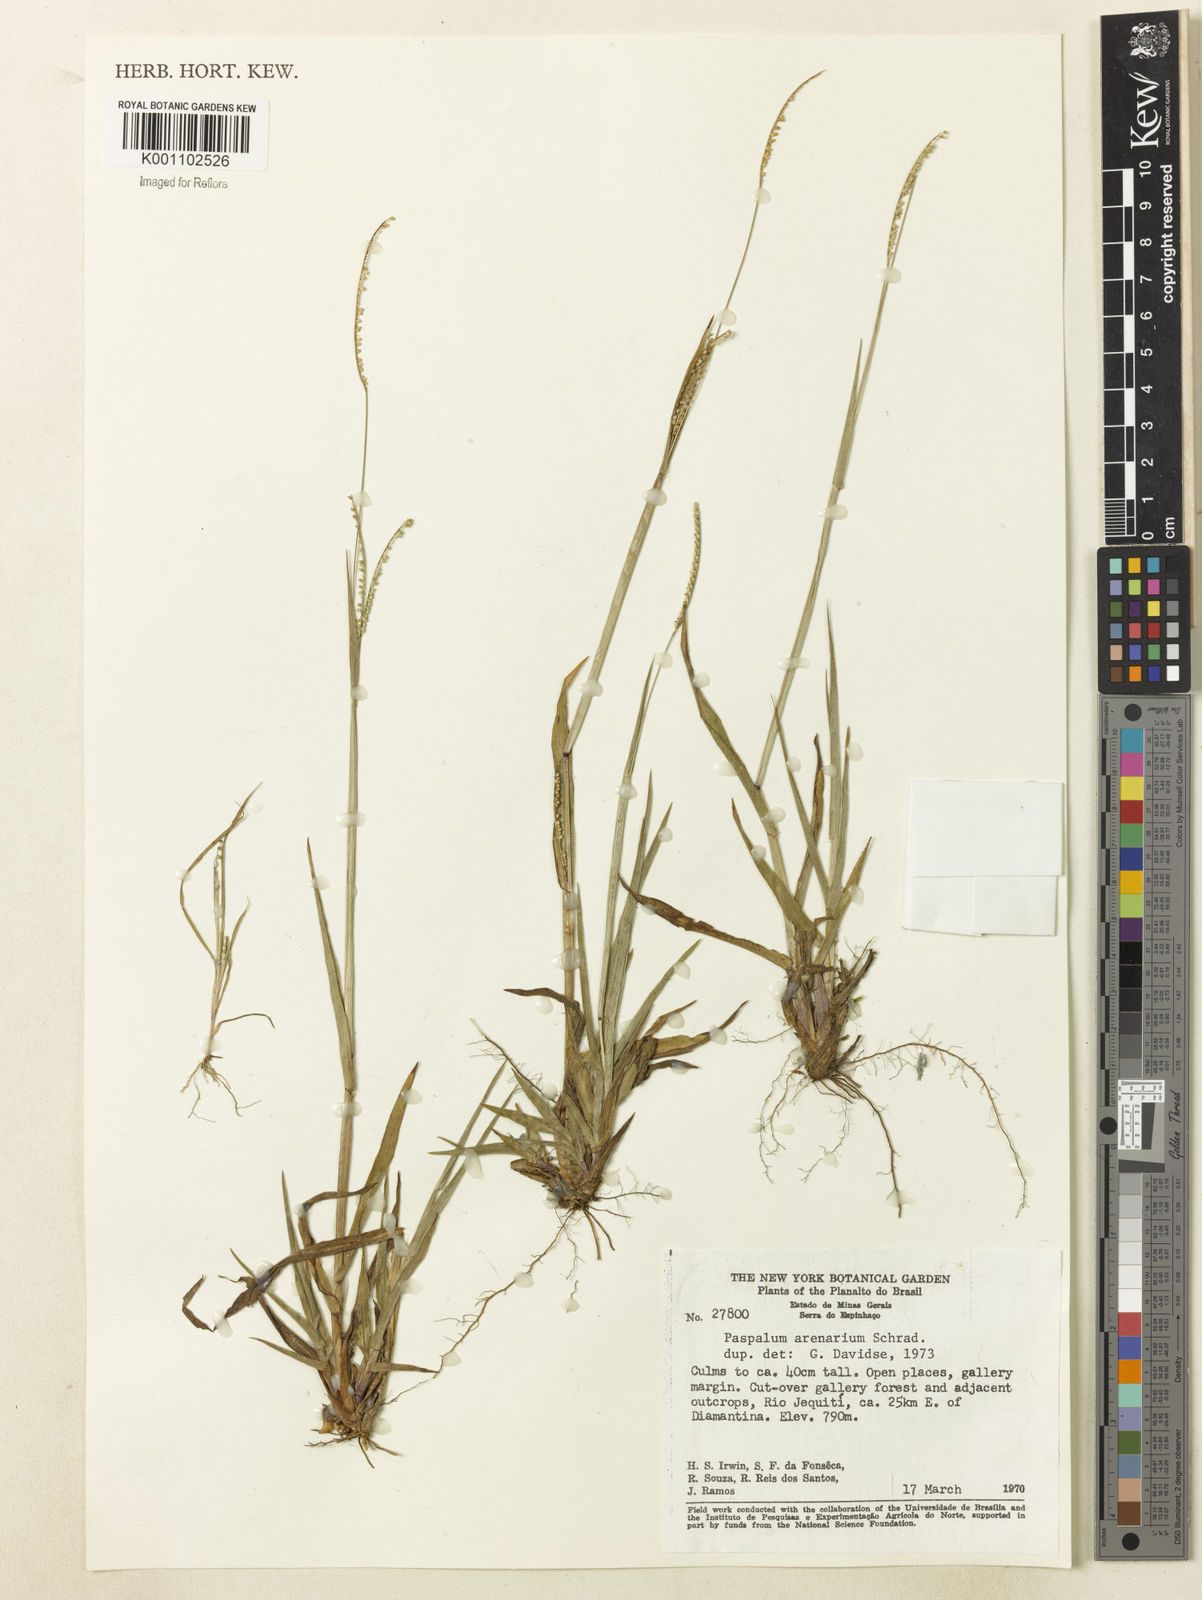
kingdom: Plantae
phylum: Tracheophyta
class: Liliopsida
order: Poales
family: Poaceae
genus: Paspalum
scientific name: Paspalum arenarium
